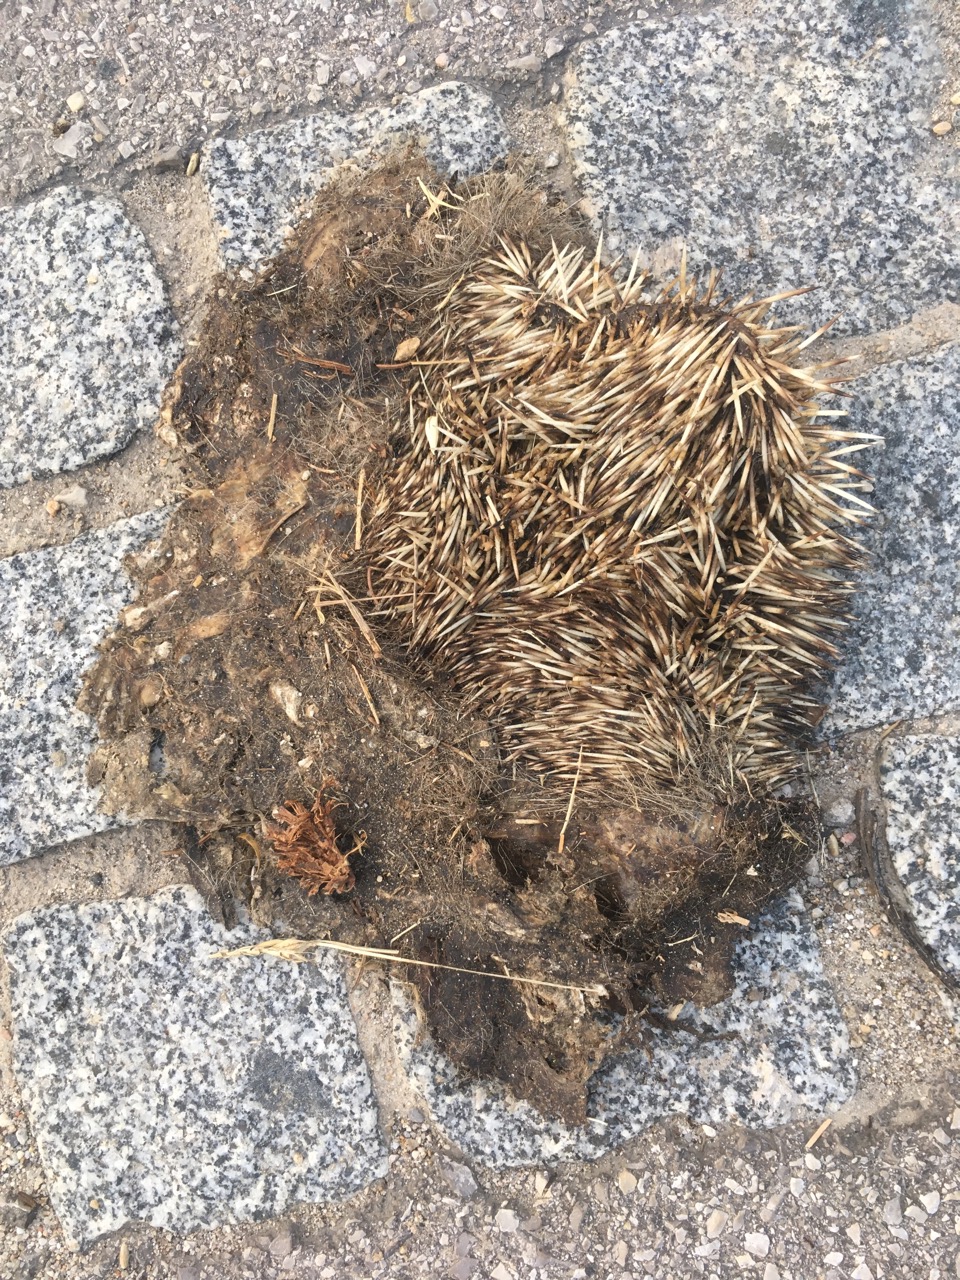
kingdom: Animalia
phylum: Chordata
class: Mammalia
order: Erinaceomorpha
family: Erinaceidae
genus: Erinaceus
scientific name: Erinaceus
